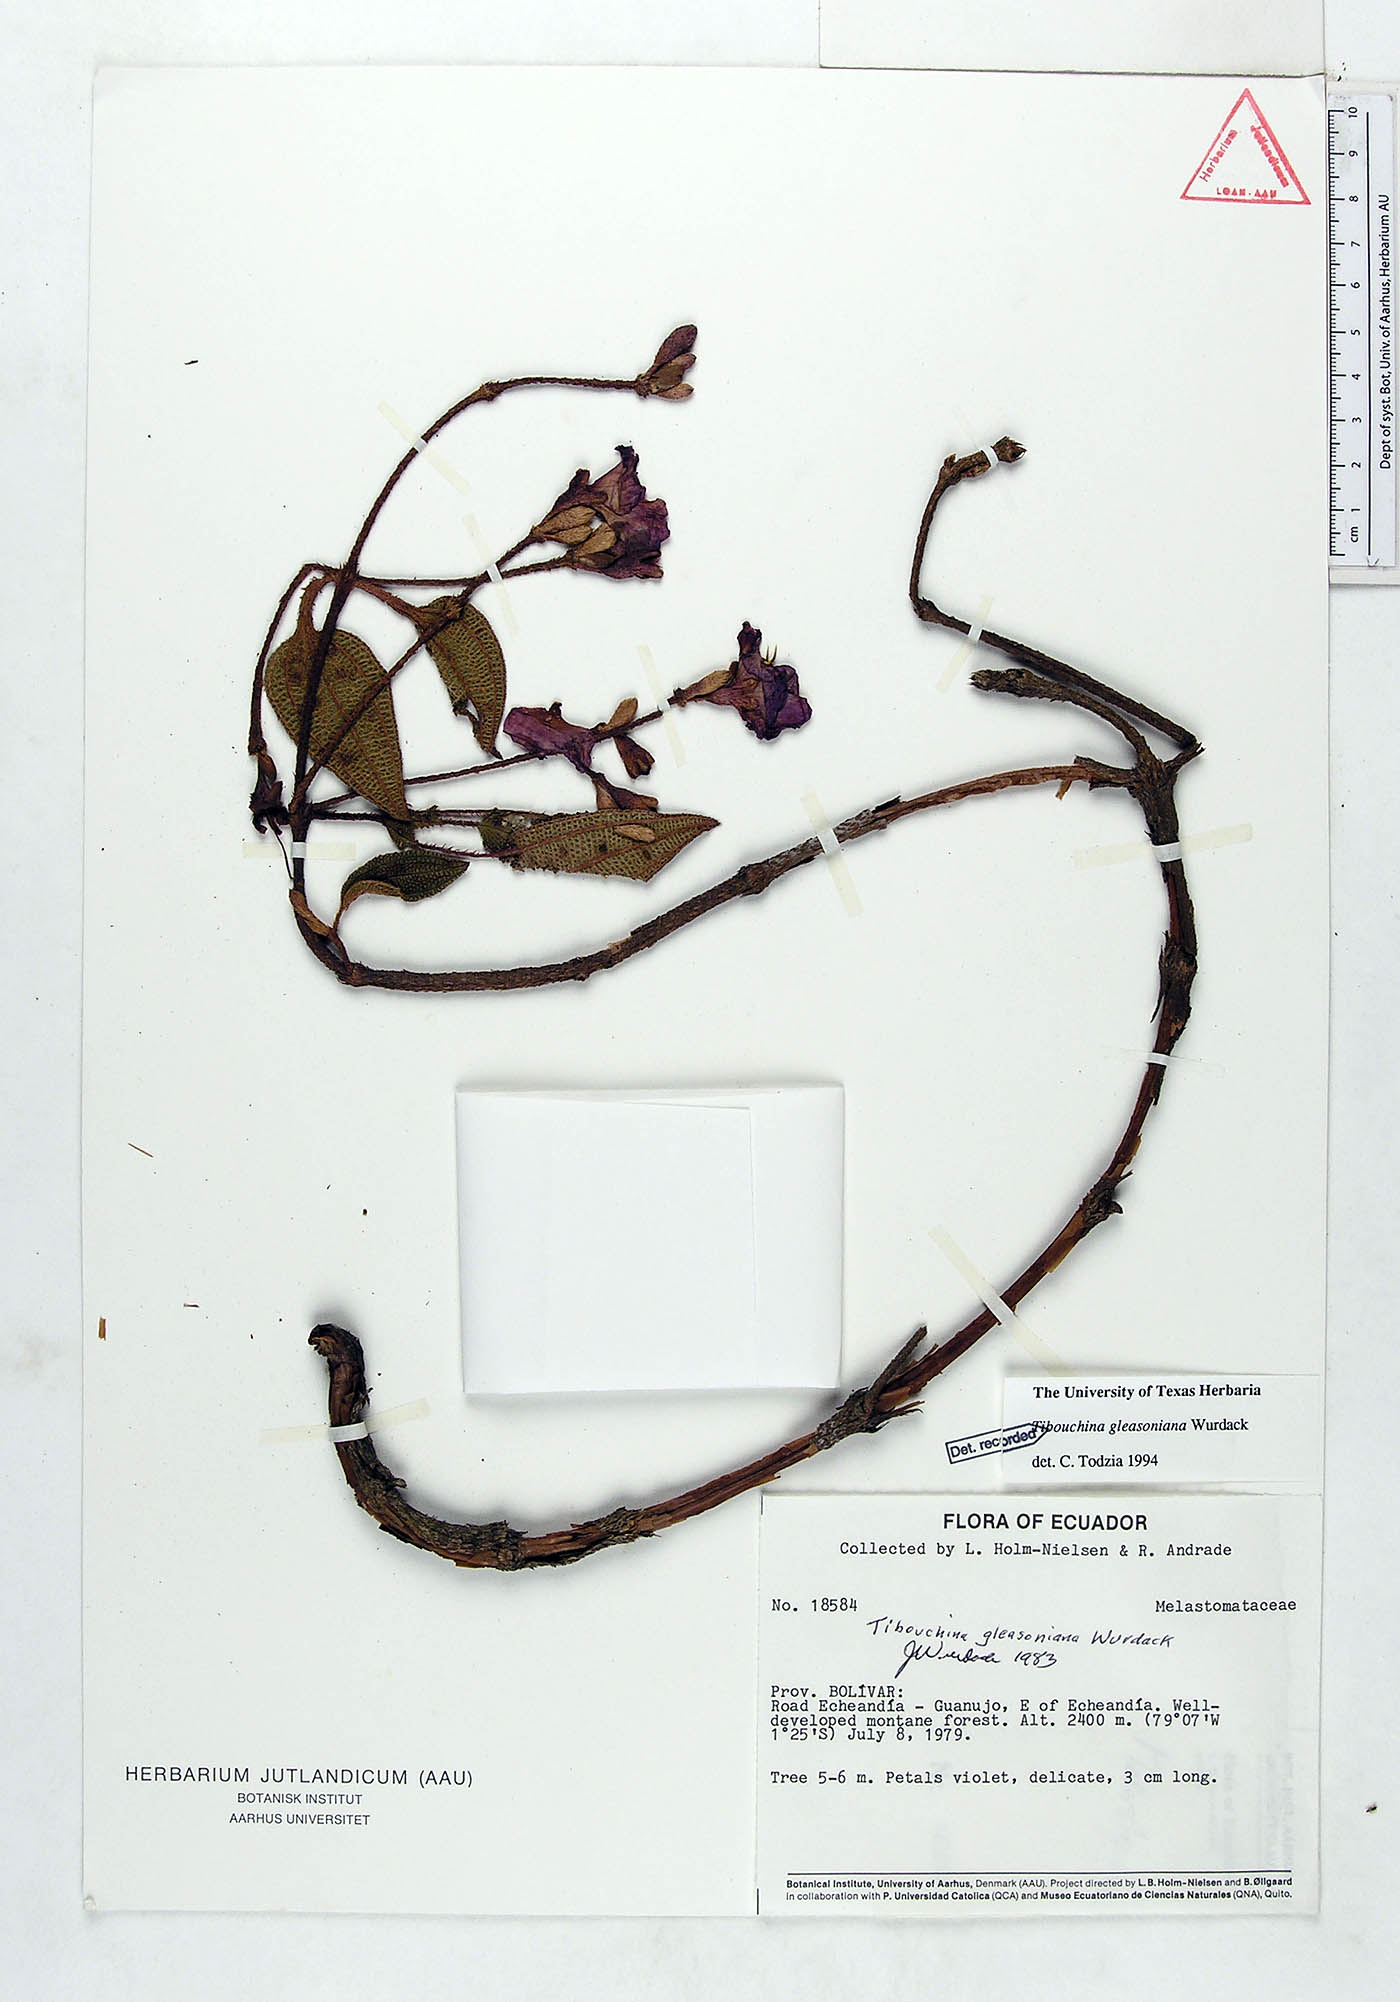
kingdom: Plantae
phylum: Tracheophyta
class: Magnoliopsida
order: Myrtales
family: Melastomataceae
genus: Andesanthus
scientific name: Andesanthus gleasonianus
